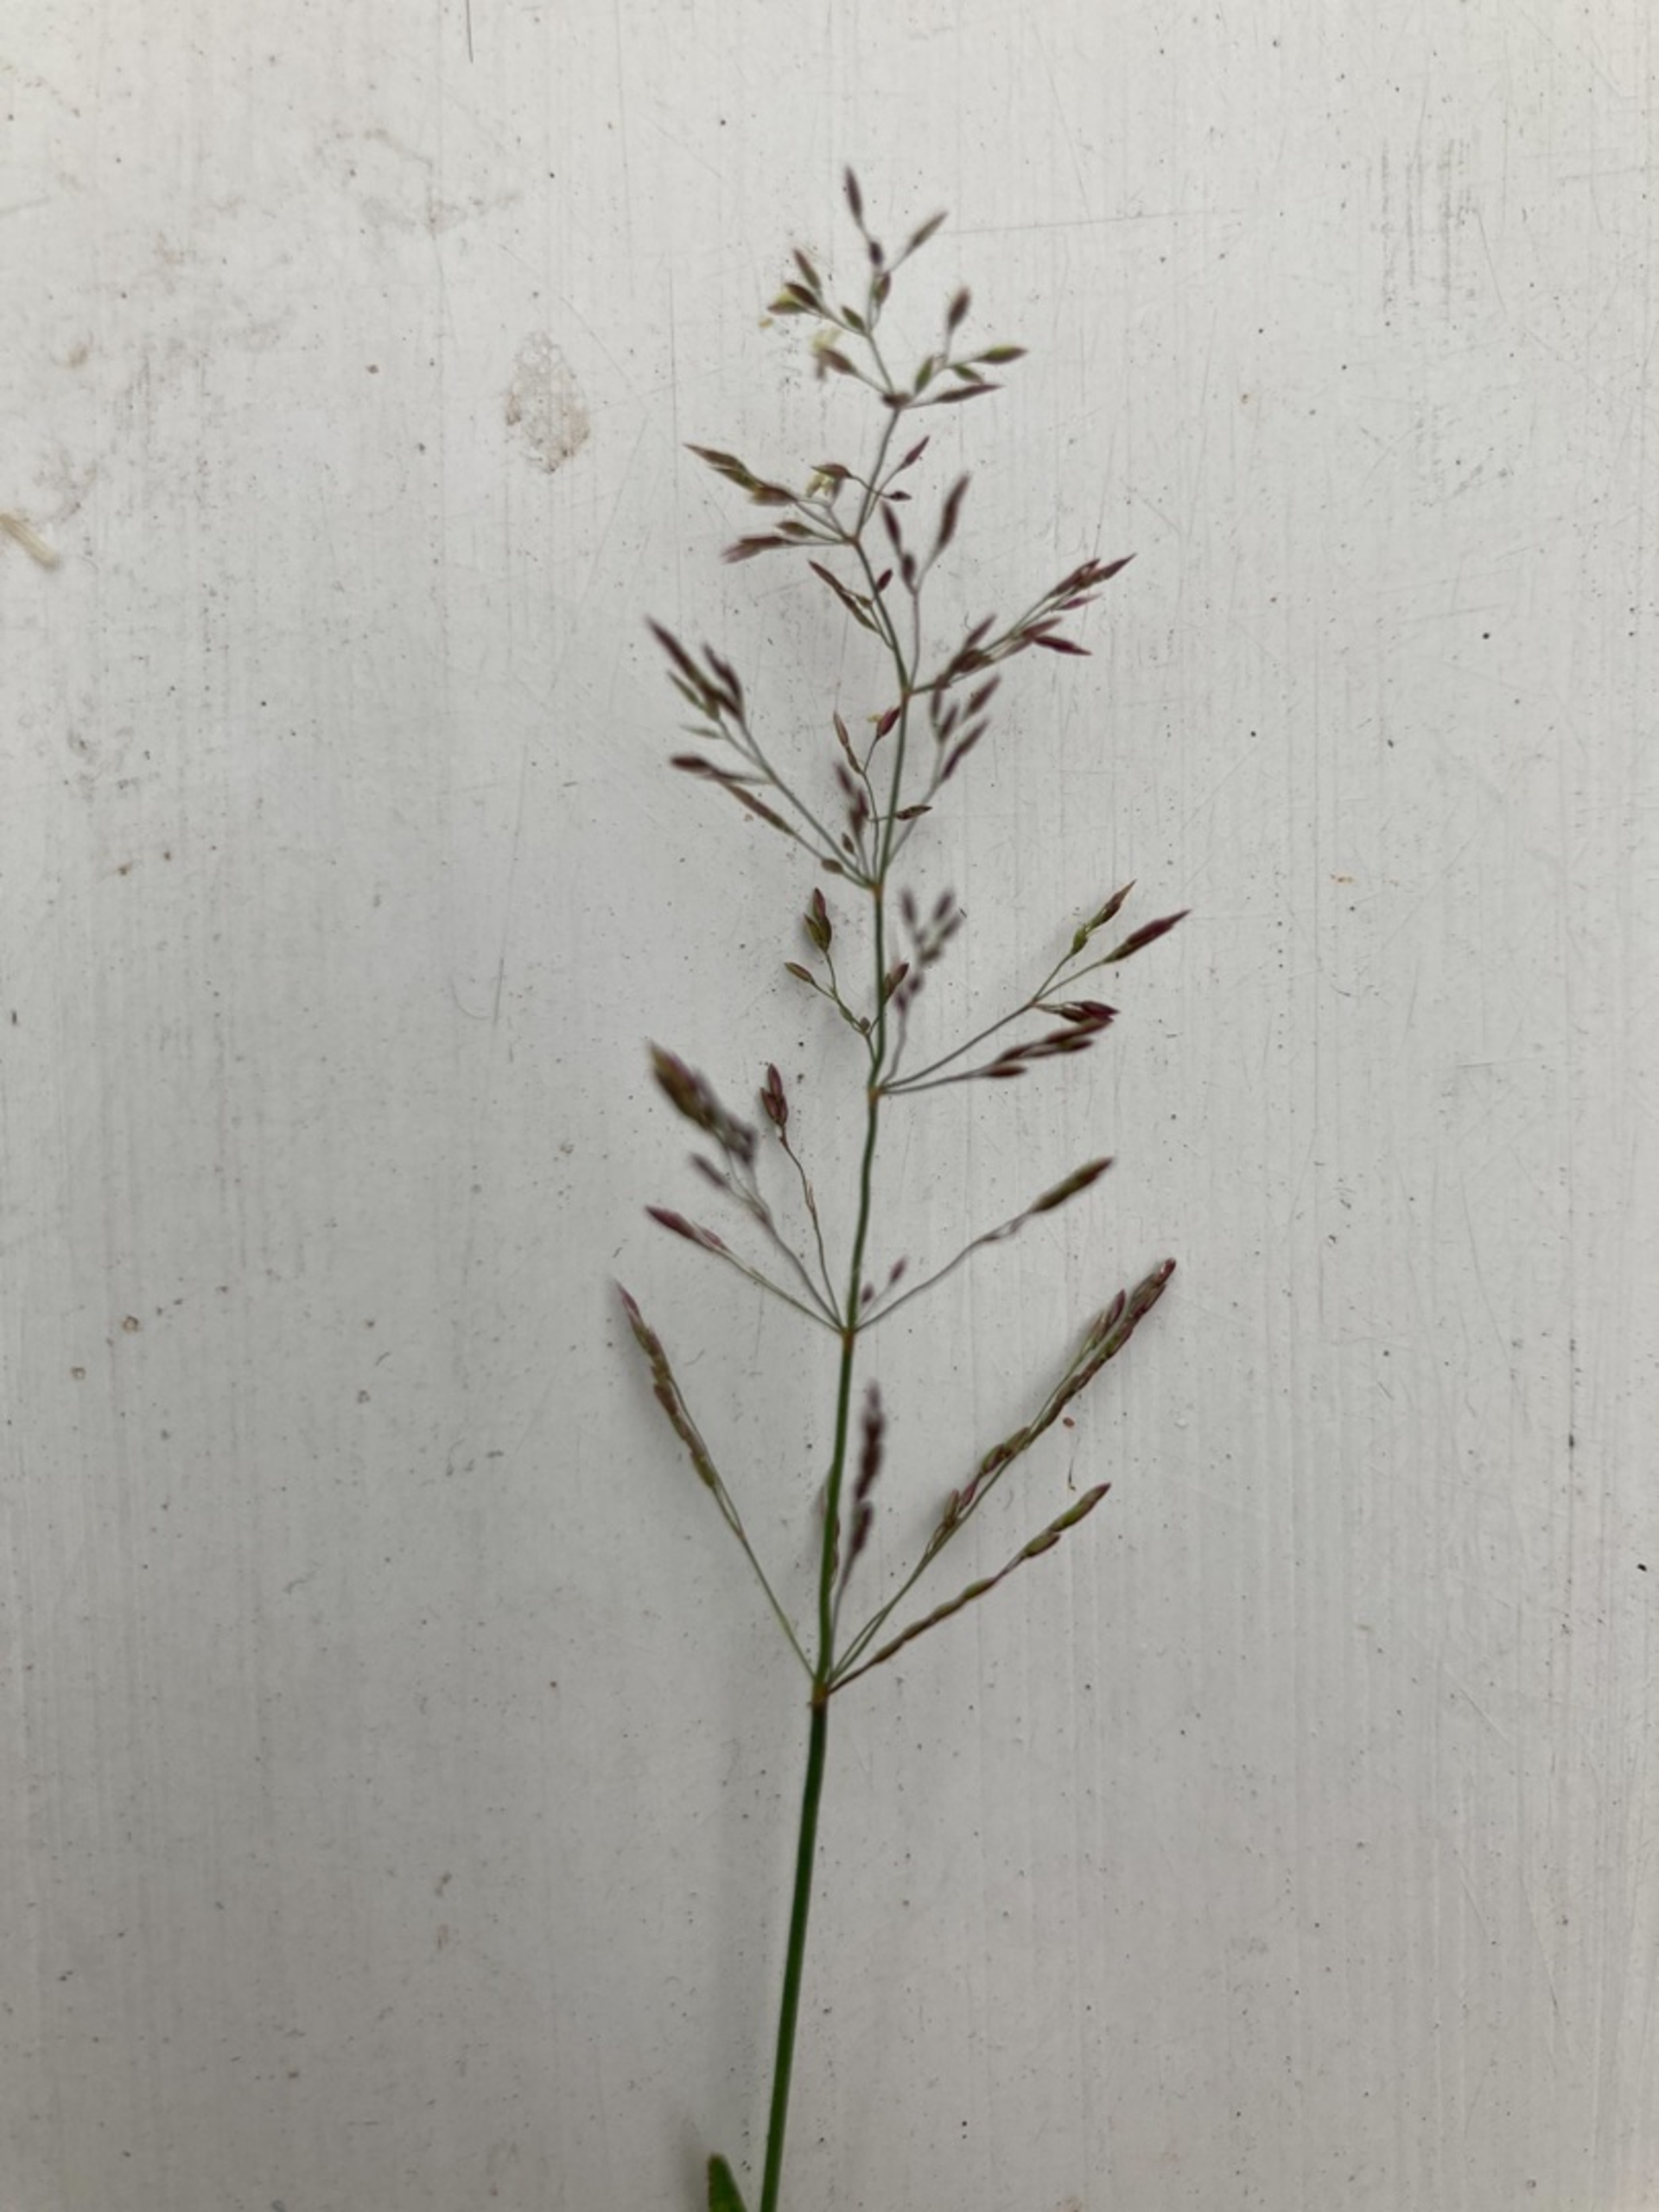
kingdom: Plantae
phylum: Tracheophyta
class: Liliopsida
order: Poales
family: Poaceae
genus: Agrostis
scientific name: Agrostis capillaris
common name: Almindelig hvene
